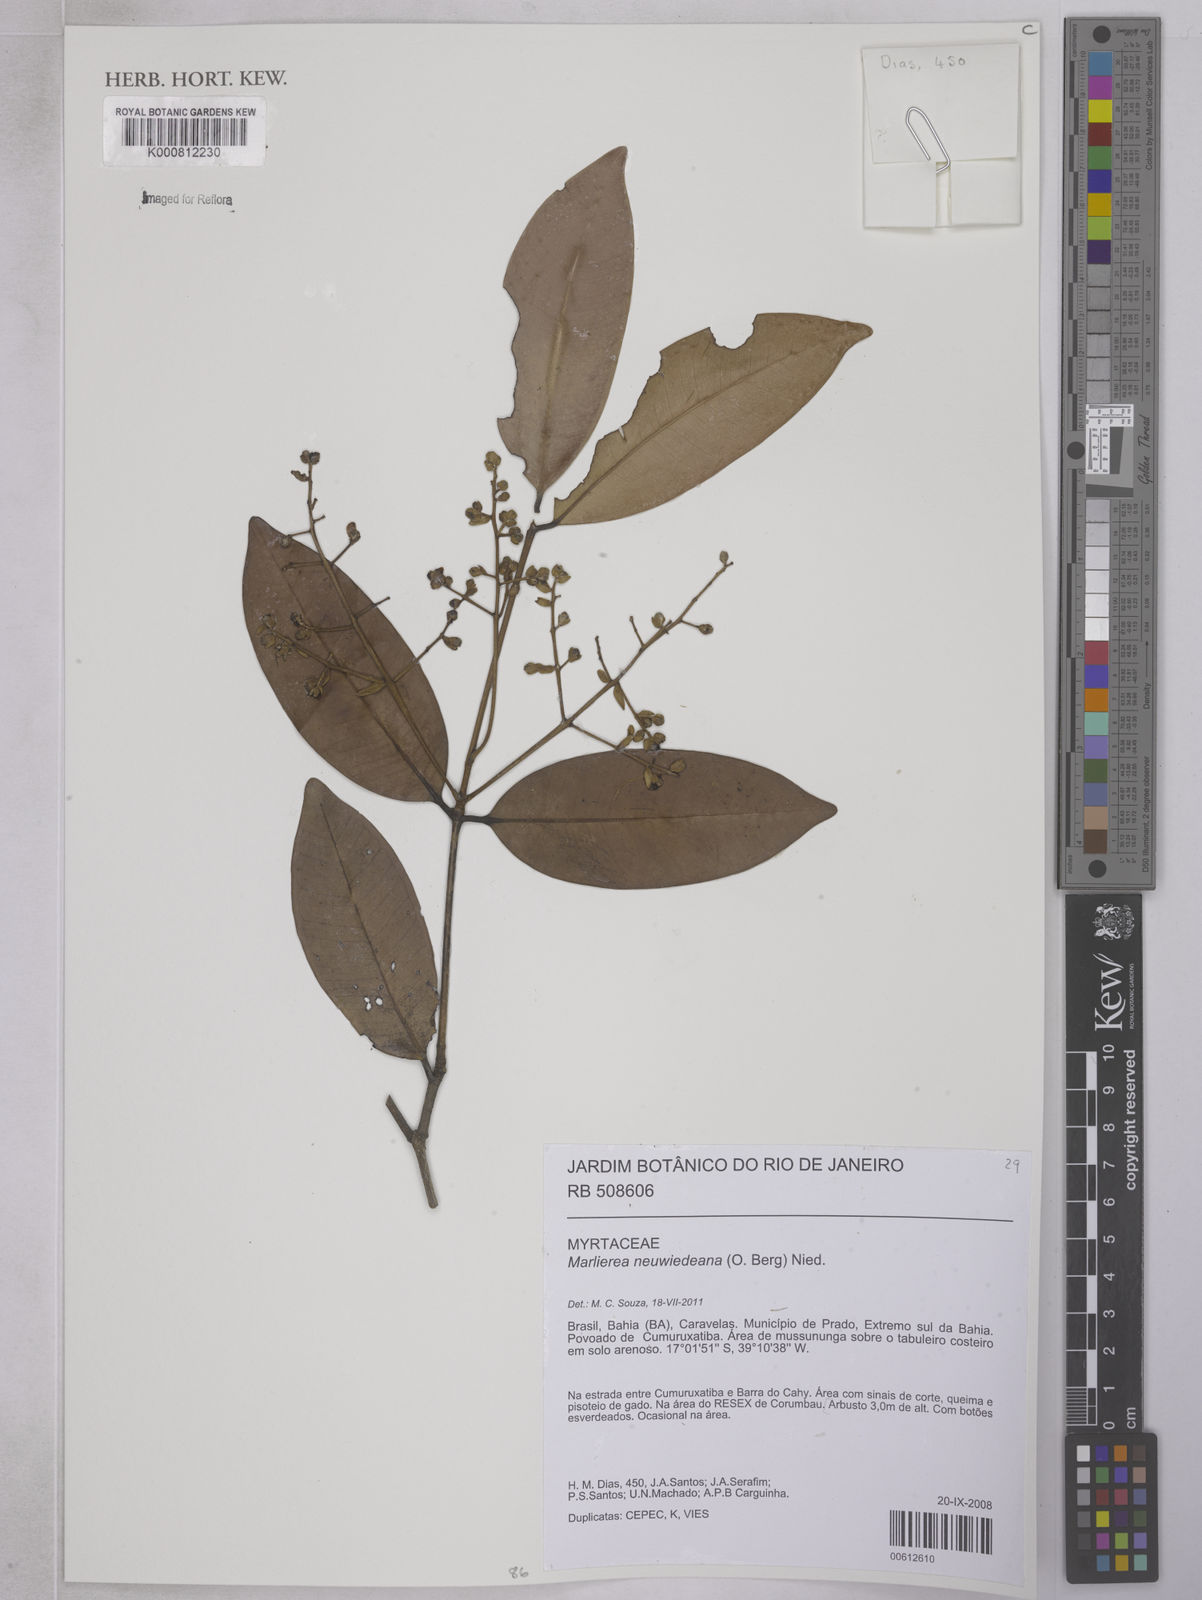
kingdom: Plantae
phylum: Tracheophyta
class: Magnoliopsida
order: Myrtales
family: Myrtaceae
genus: Myrcia
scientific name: Myrcia neuwiedeana
